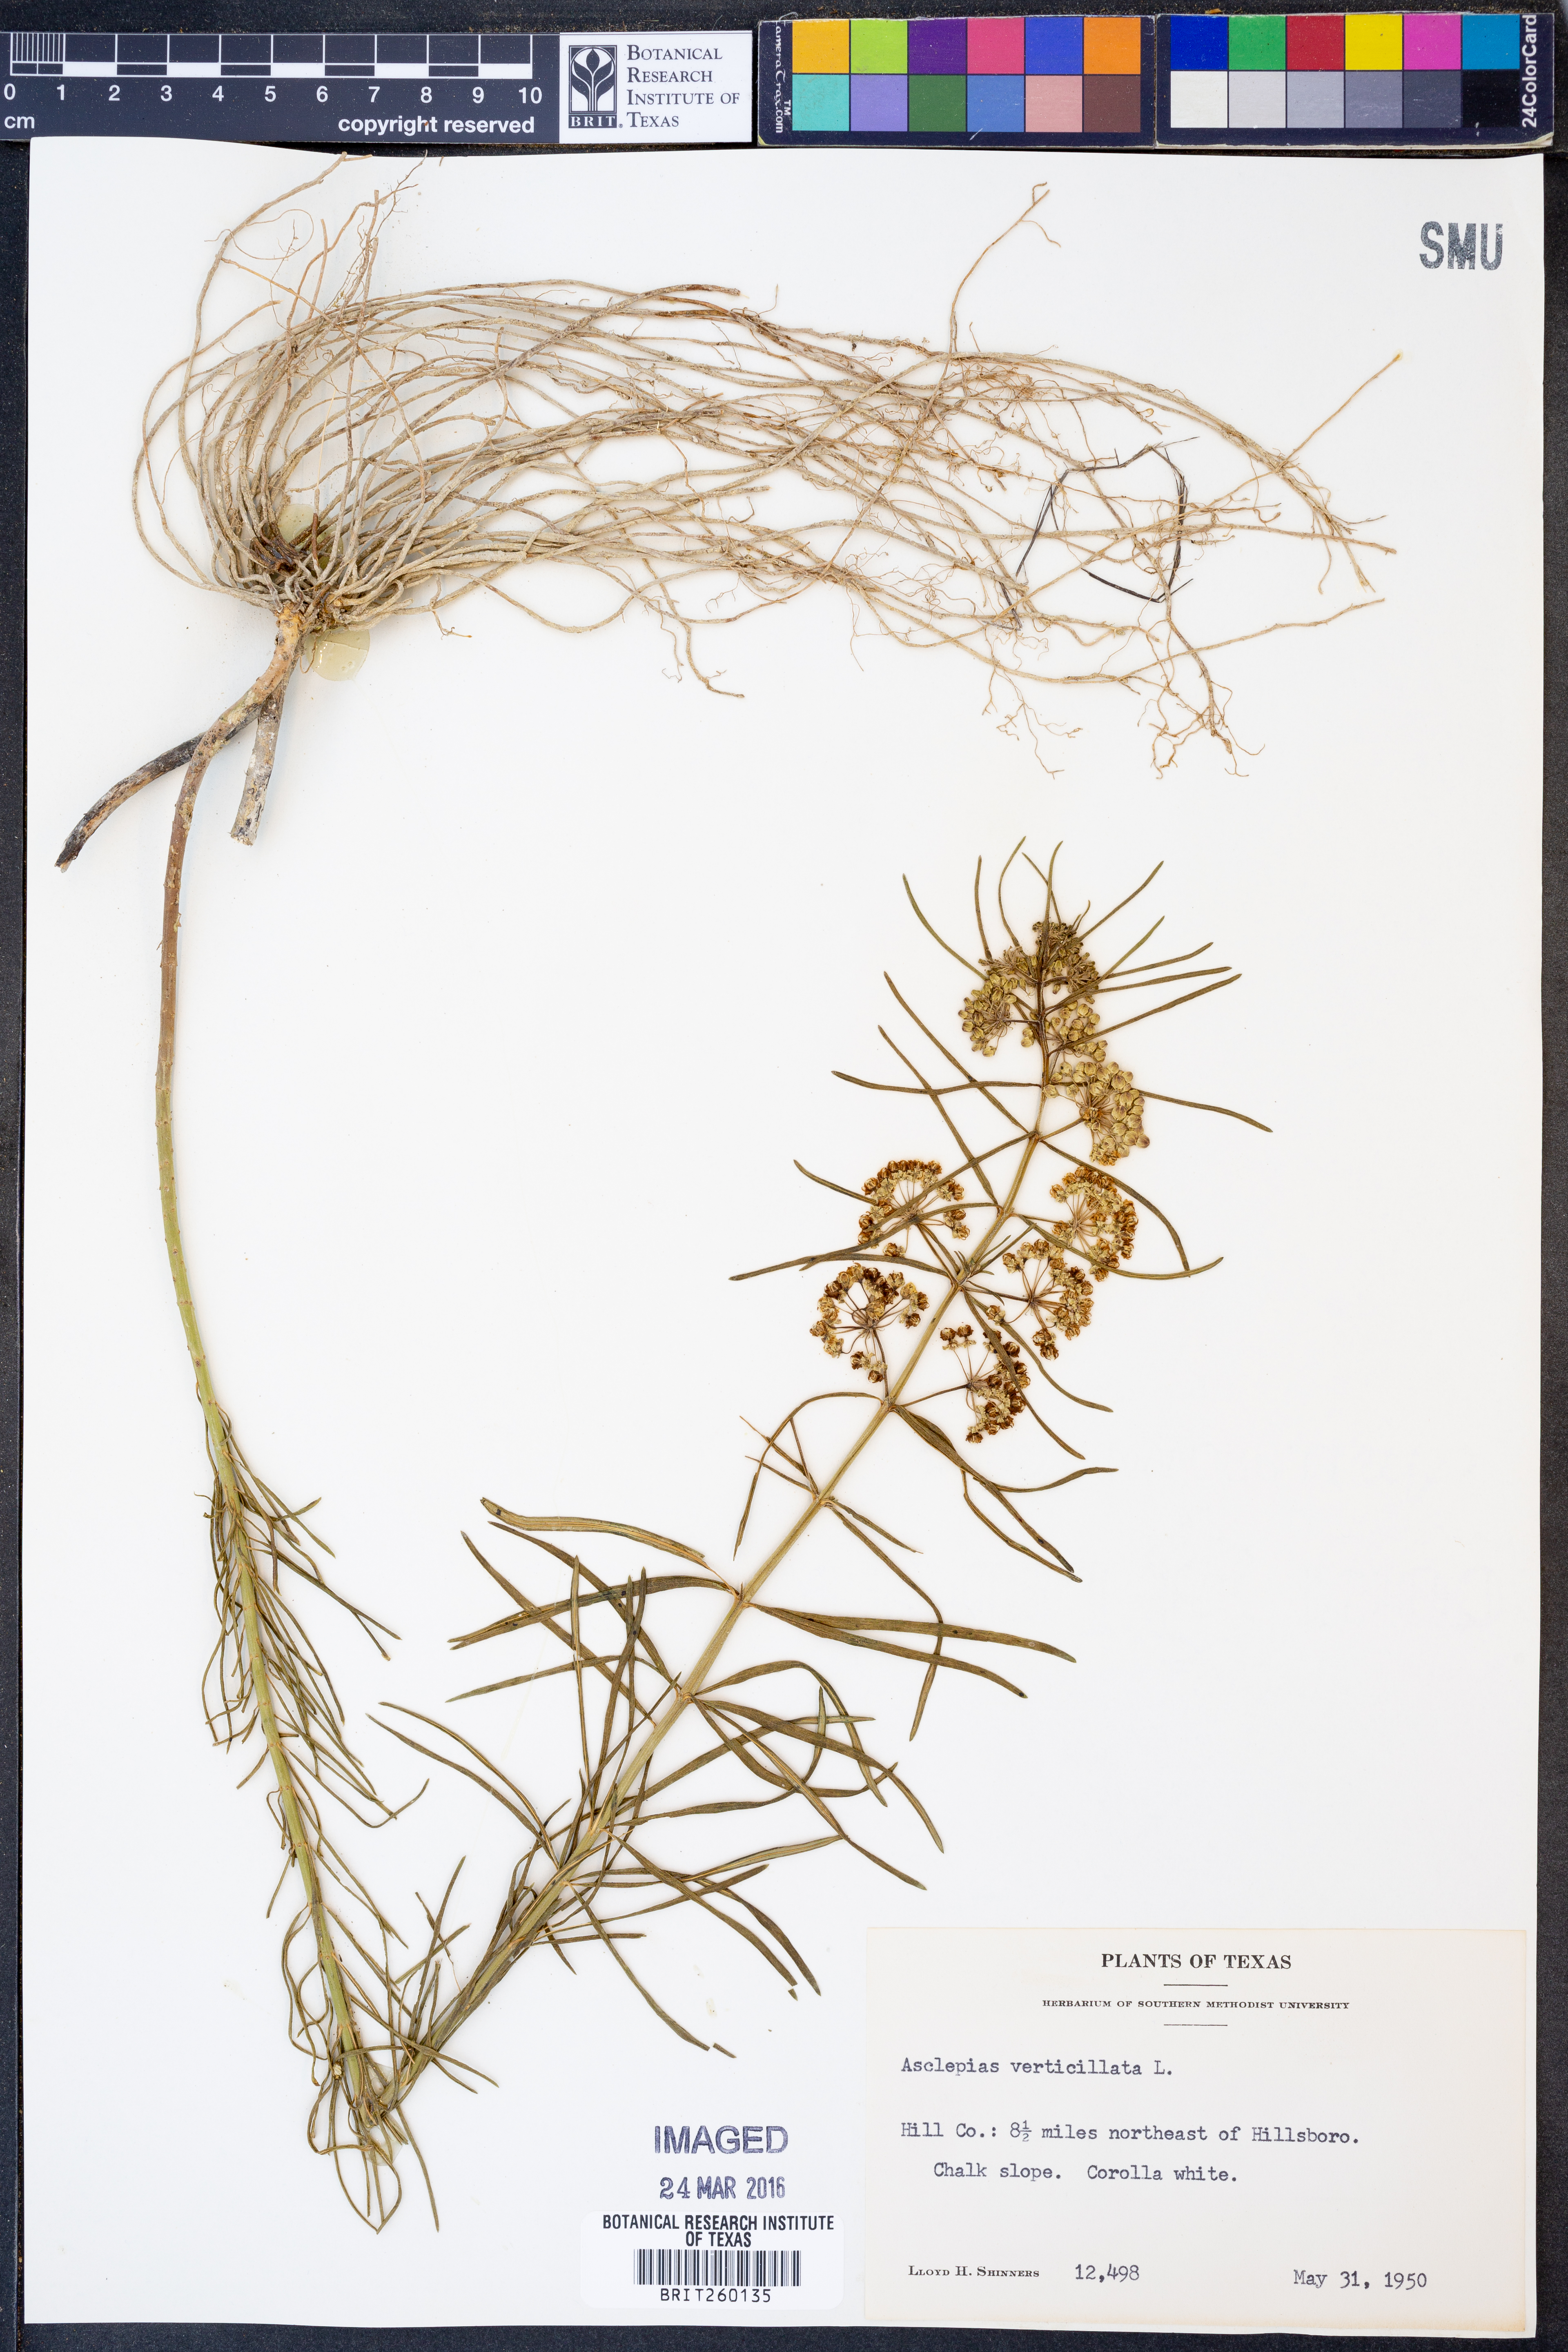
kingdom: Plantae
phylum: Tracheophyta
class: Magnoliopsida
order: Gentianales
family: Apocynaceae
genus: Asclepias
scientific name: Asclepias verticillata
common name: Eastern whorled milkweed
